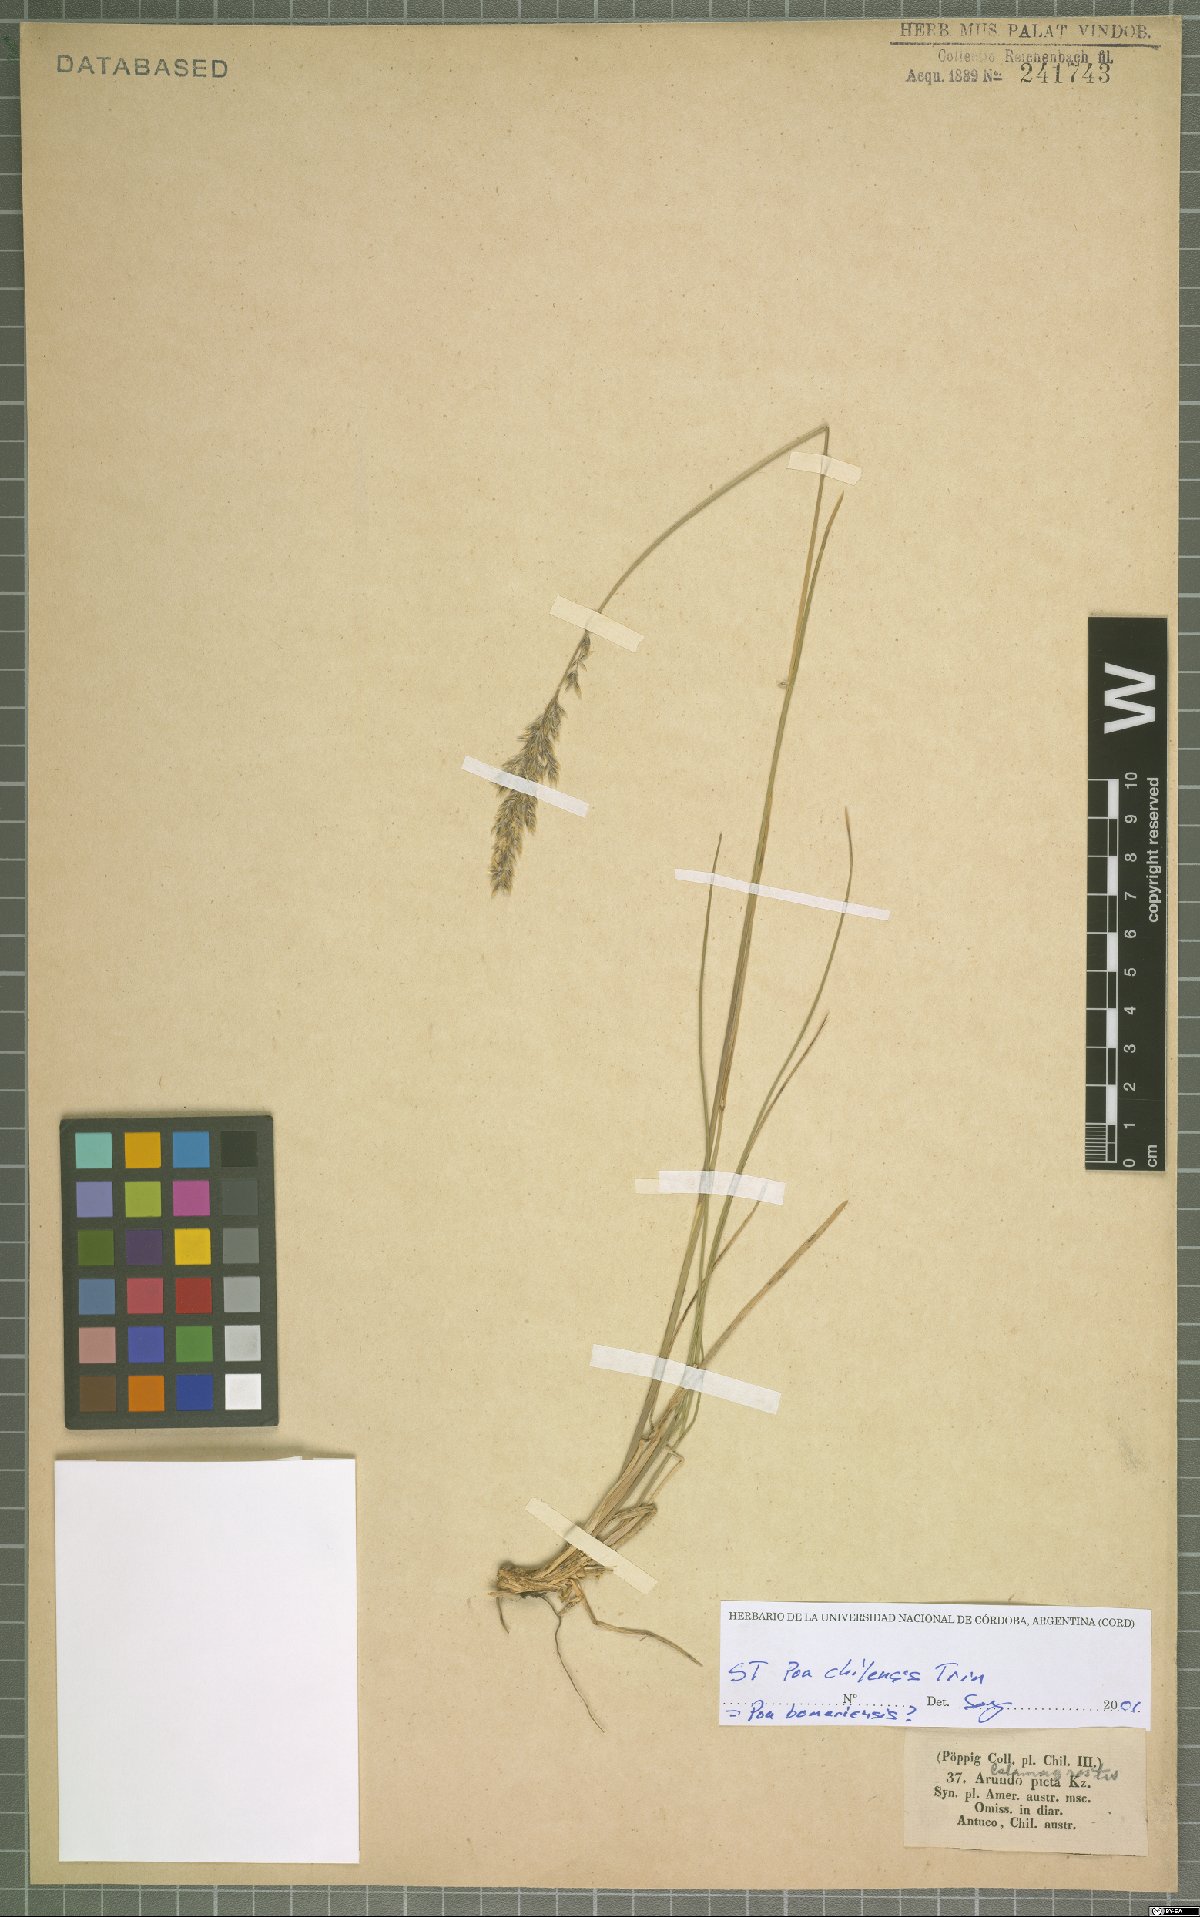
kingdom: Plantae
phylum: Tracheophyta
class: Liliopsida
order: Poales
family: Poaceae
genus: Poa
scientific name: Poa bonariensis
